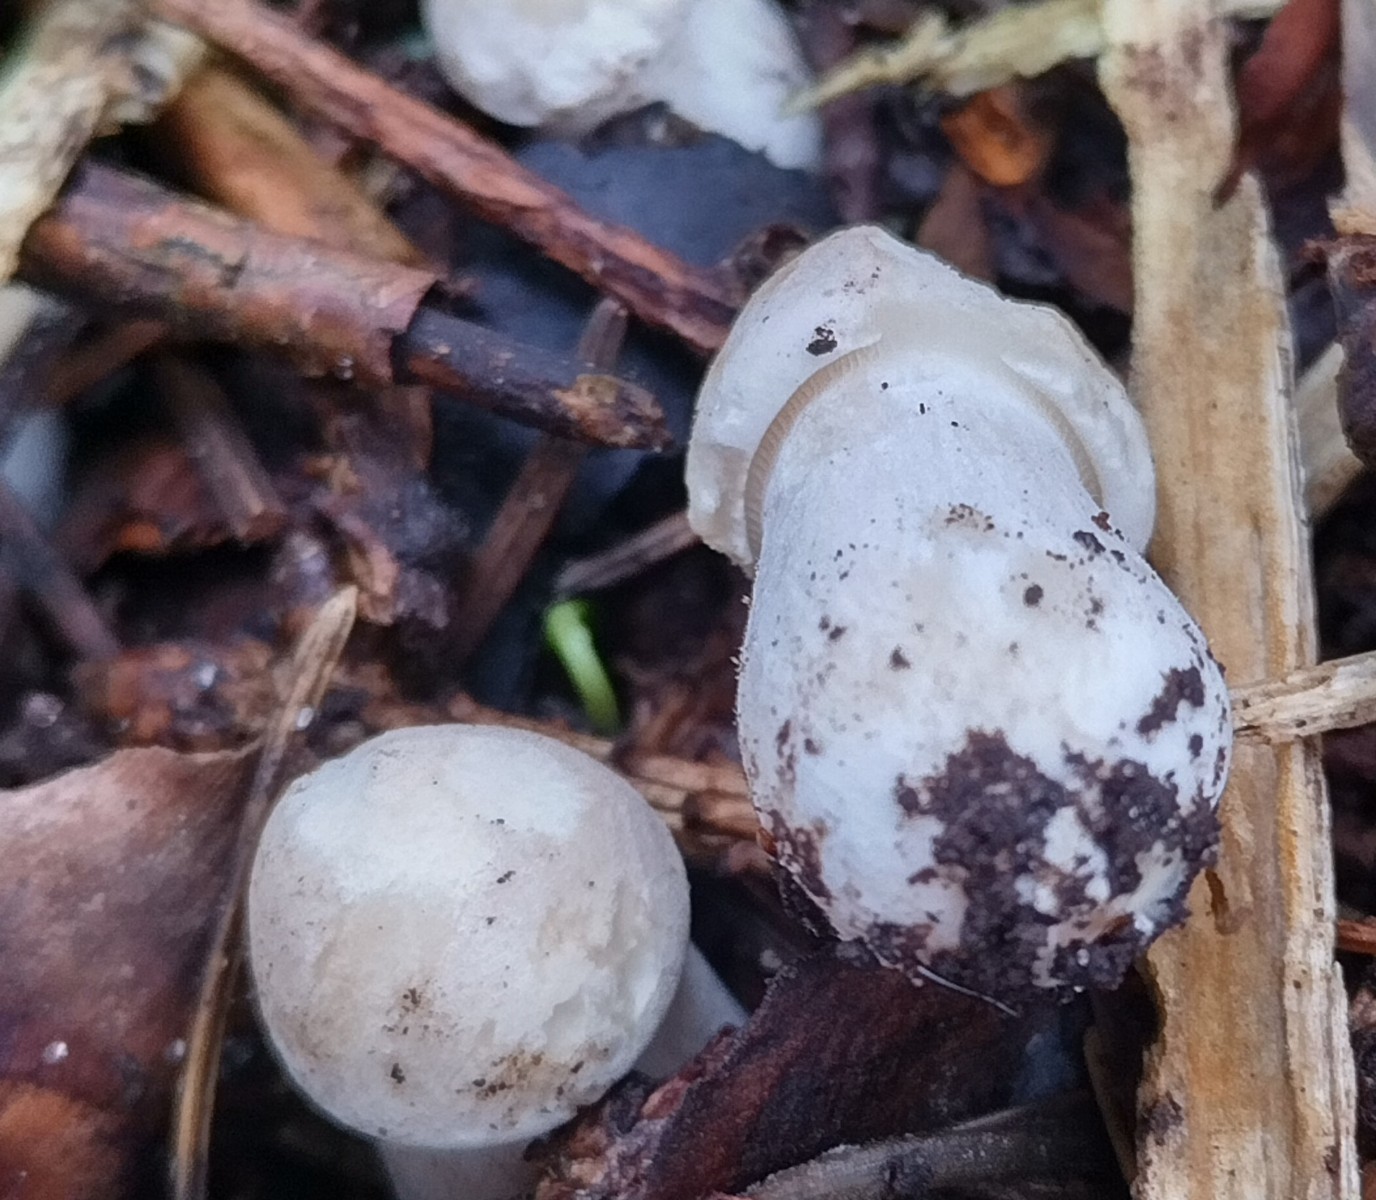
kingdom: Fungi
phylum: Basidiomycota
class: Agaricomycetes
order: Agaricales
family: Lyophyllaceae
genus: Calocybe
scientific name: Calocybe gambosa
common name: vårmusseron
